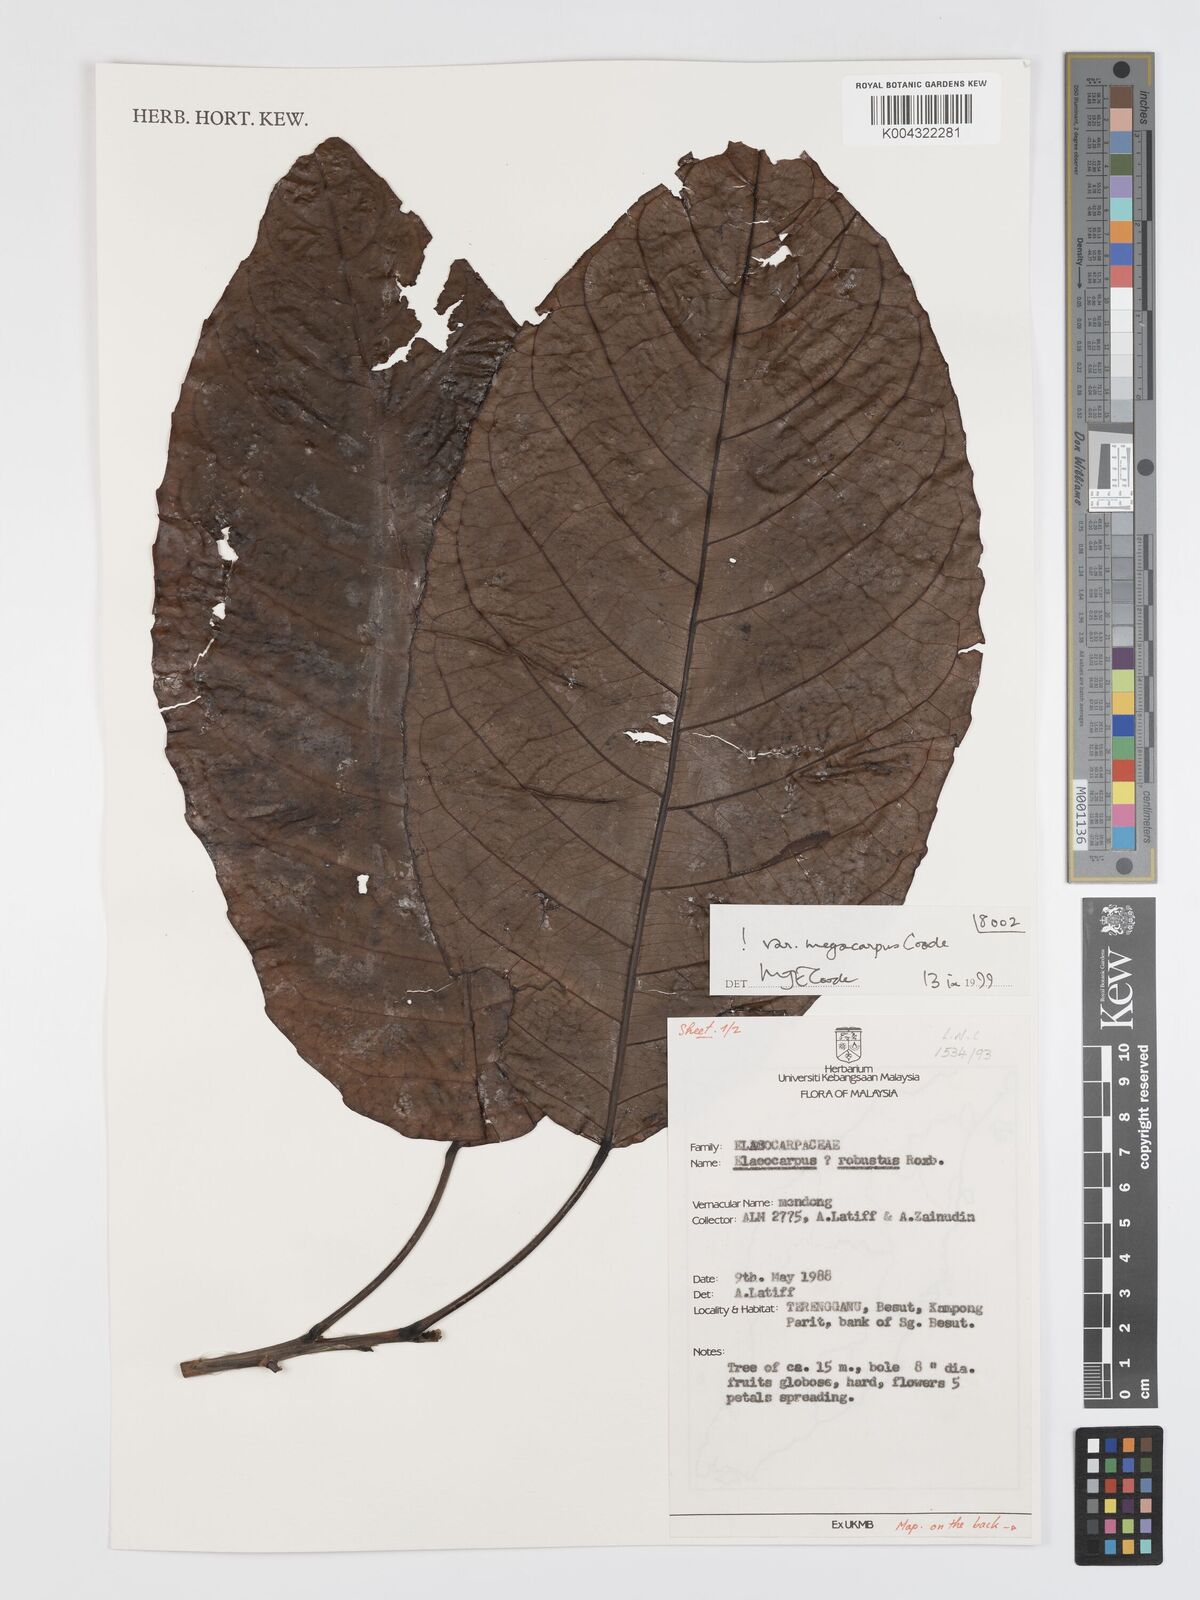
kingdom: Plantae
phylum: Tracheophyta
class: Magnoliopsida
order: Oxalidales
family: Elaeocarpaceae
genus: Elaeocarpus
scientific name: Elaeocarpus robustus
